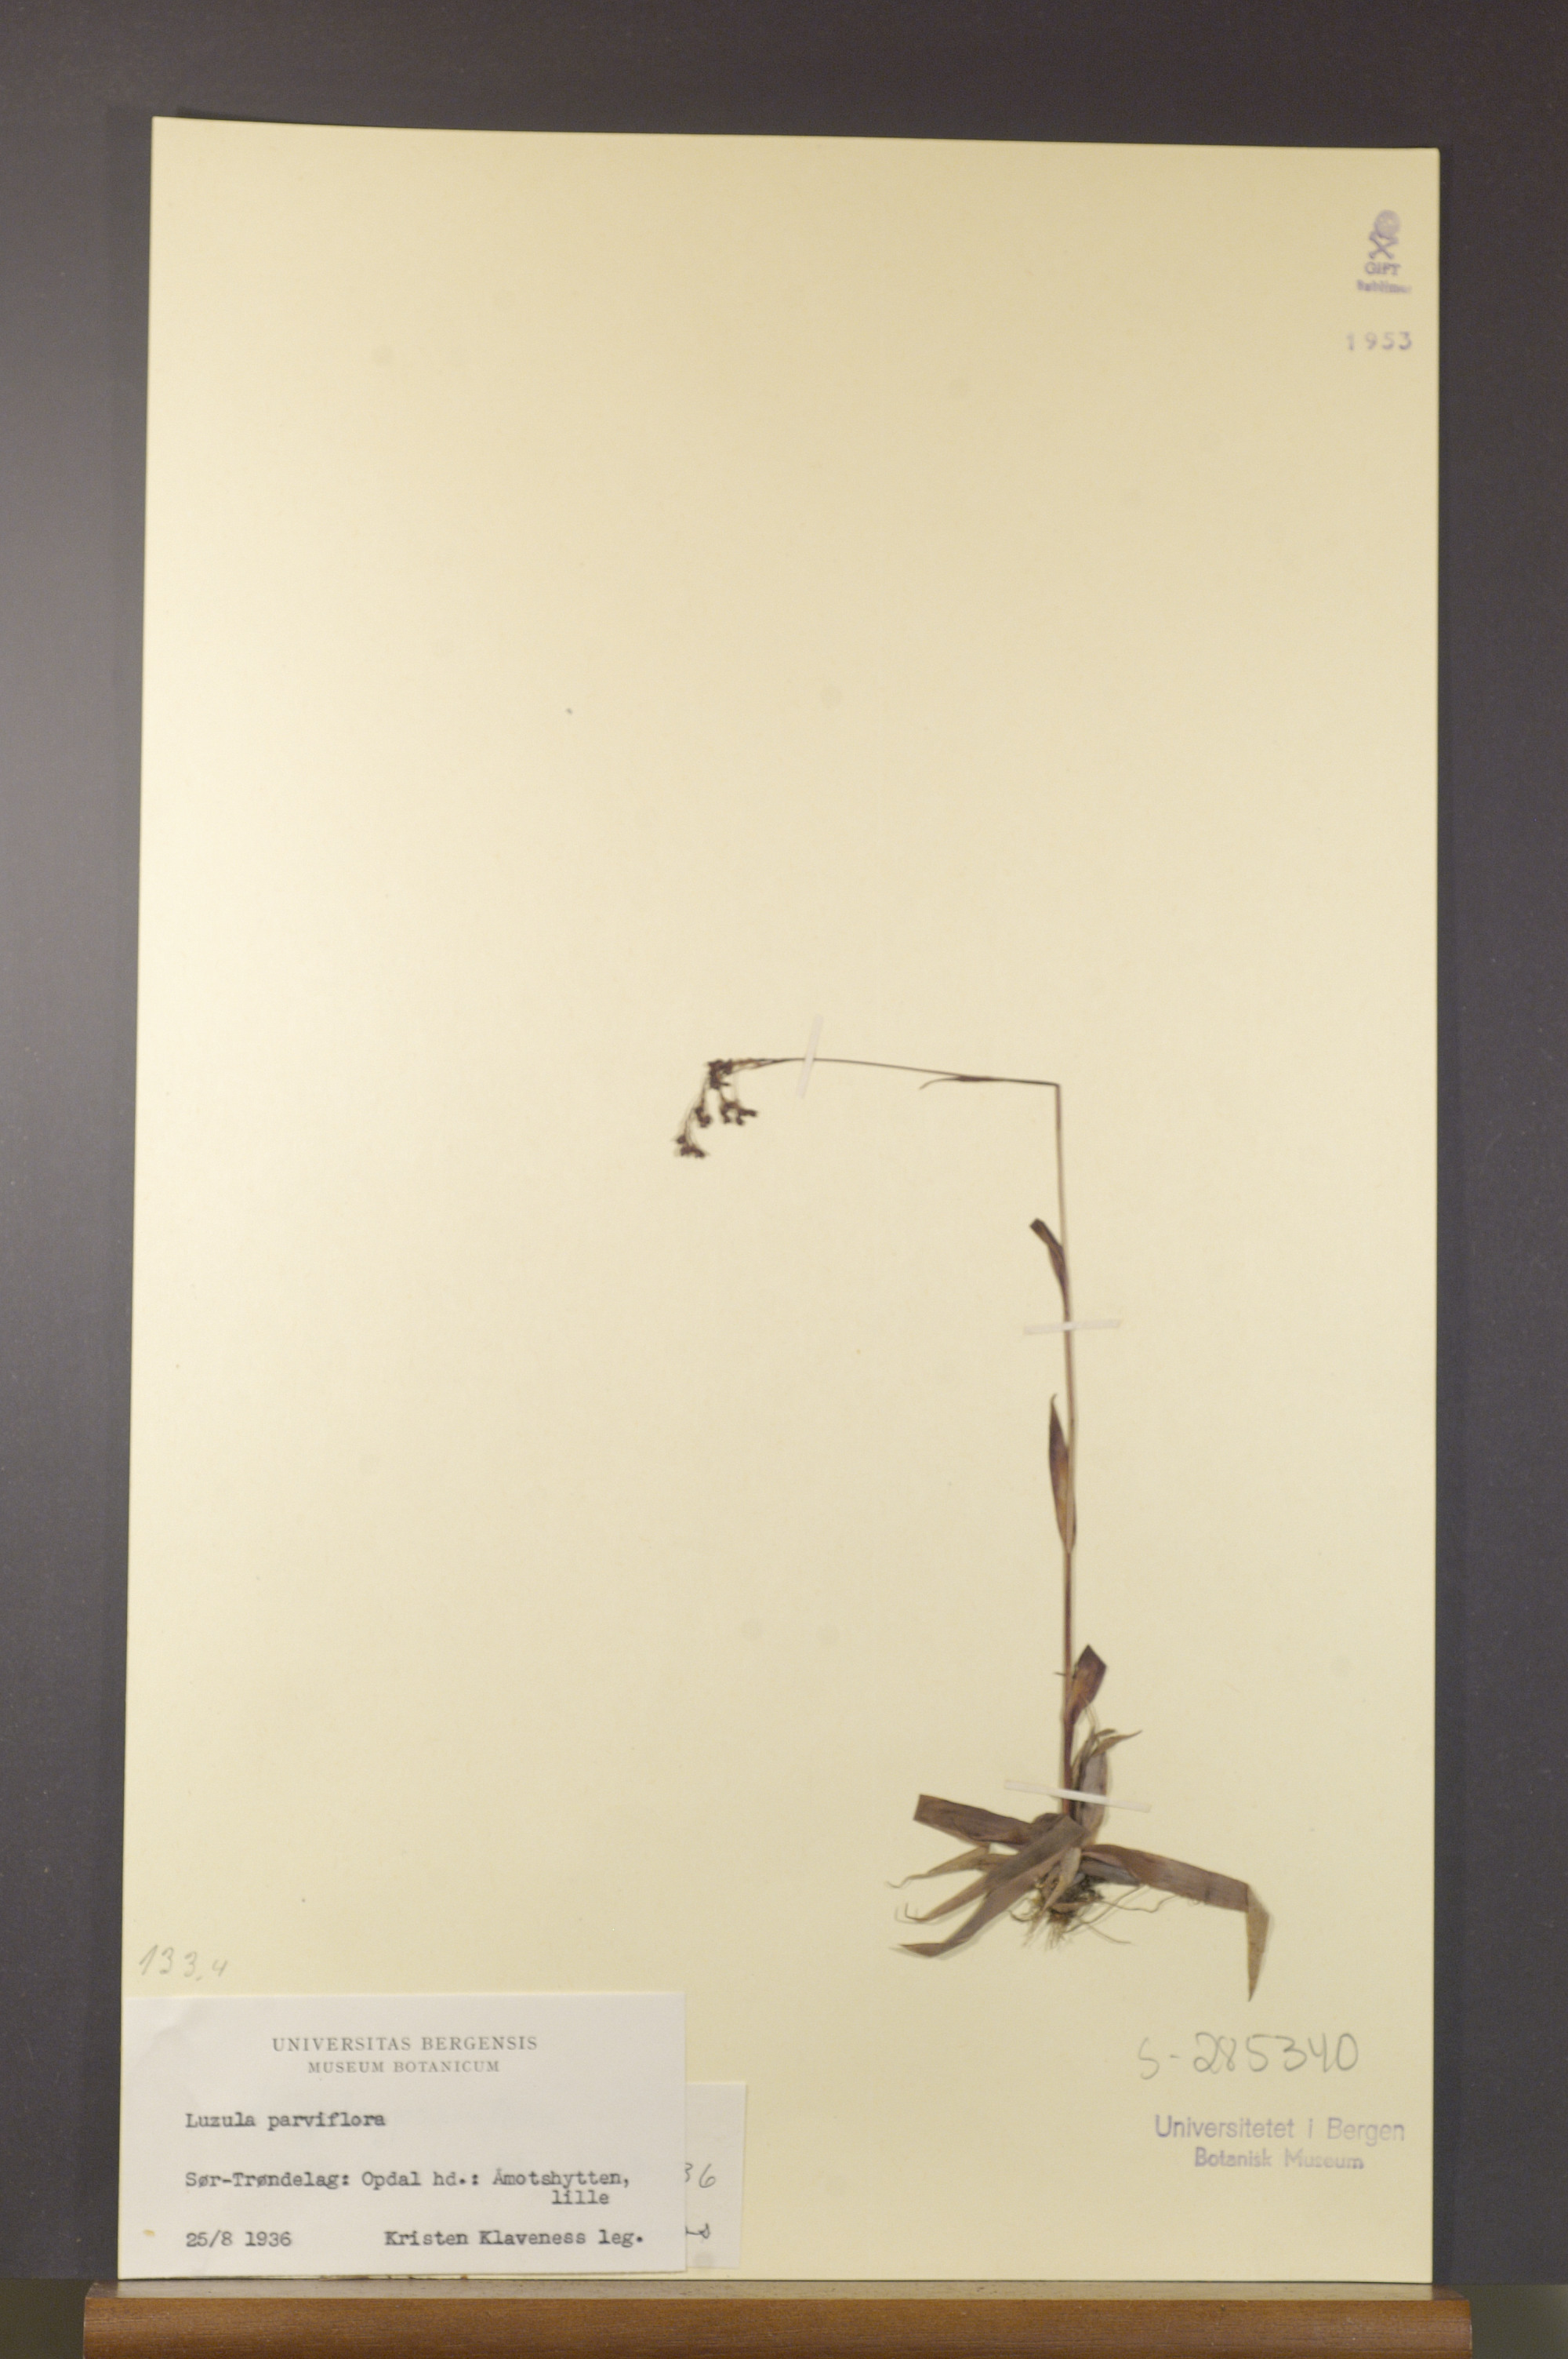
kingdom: Plantae
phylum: Tracheophyta
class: Liliopsida
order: Poales
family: Juncaceae
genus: Luzula
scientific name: Luzula parviflora
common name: Millet woodrush
